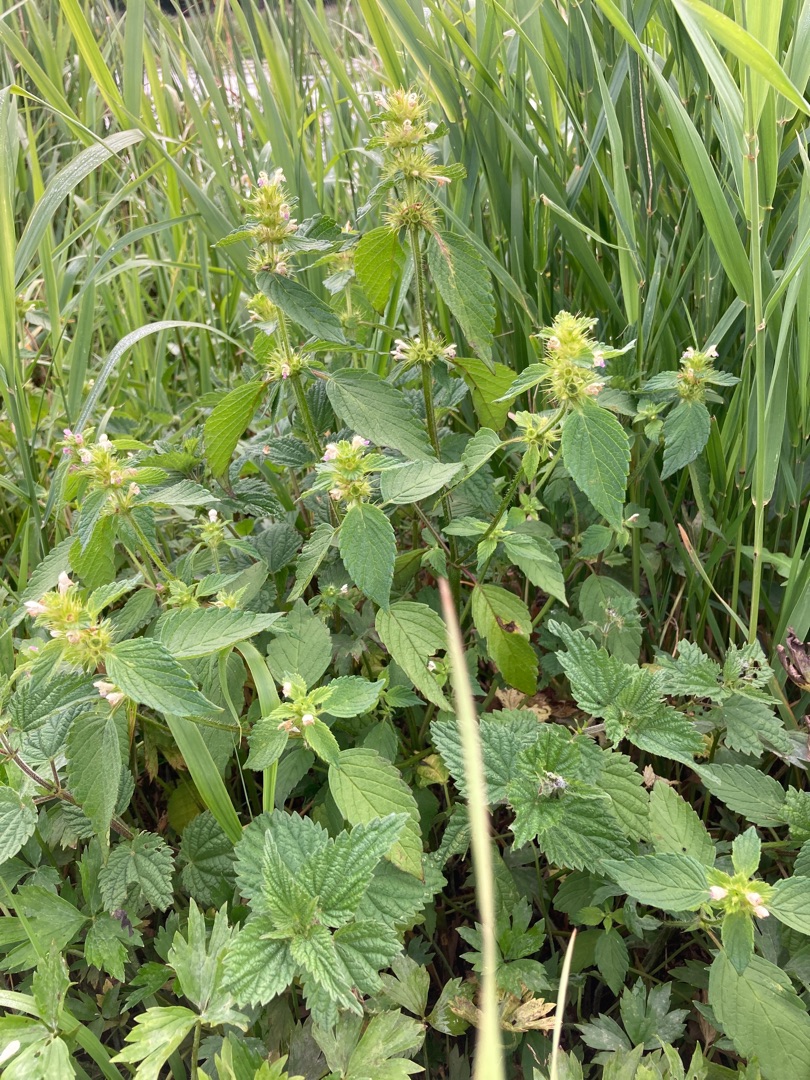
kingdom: Plantae
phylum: Tracheophyta
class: Magnoliopsida
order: Lamiales
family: Lamiaceae
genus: Galeopsis
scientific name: Galeopsis bifida
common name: Skov-hanekro
